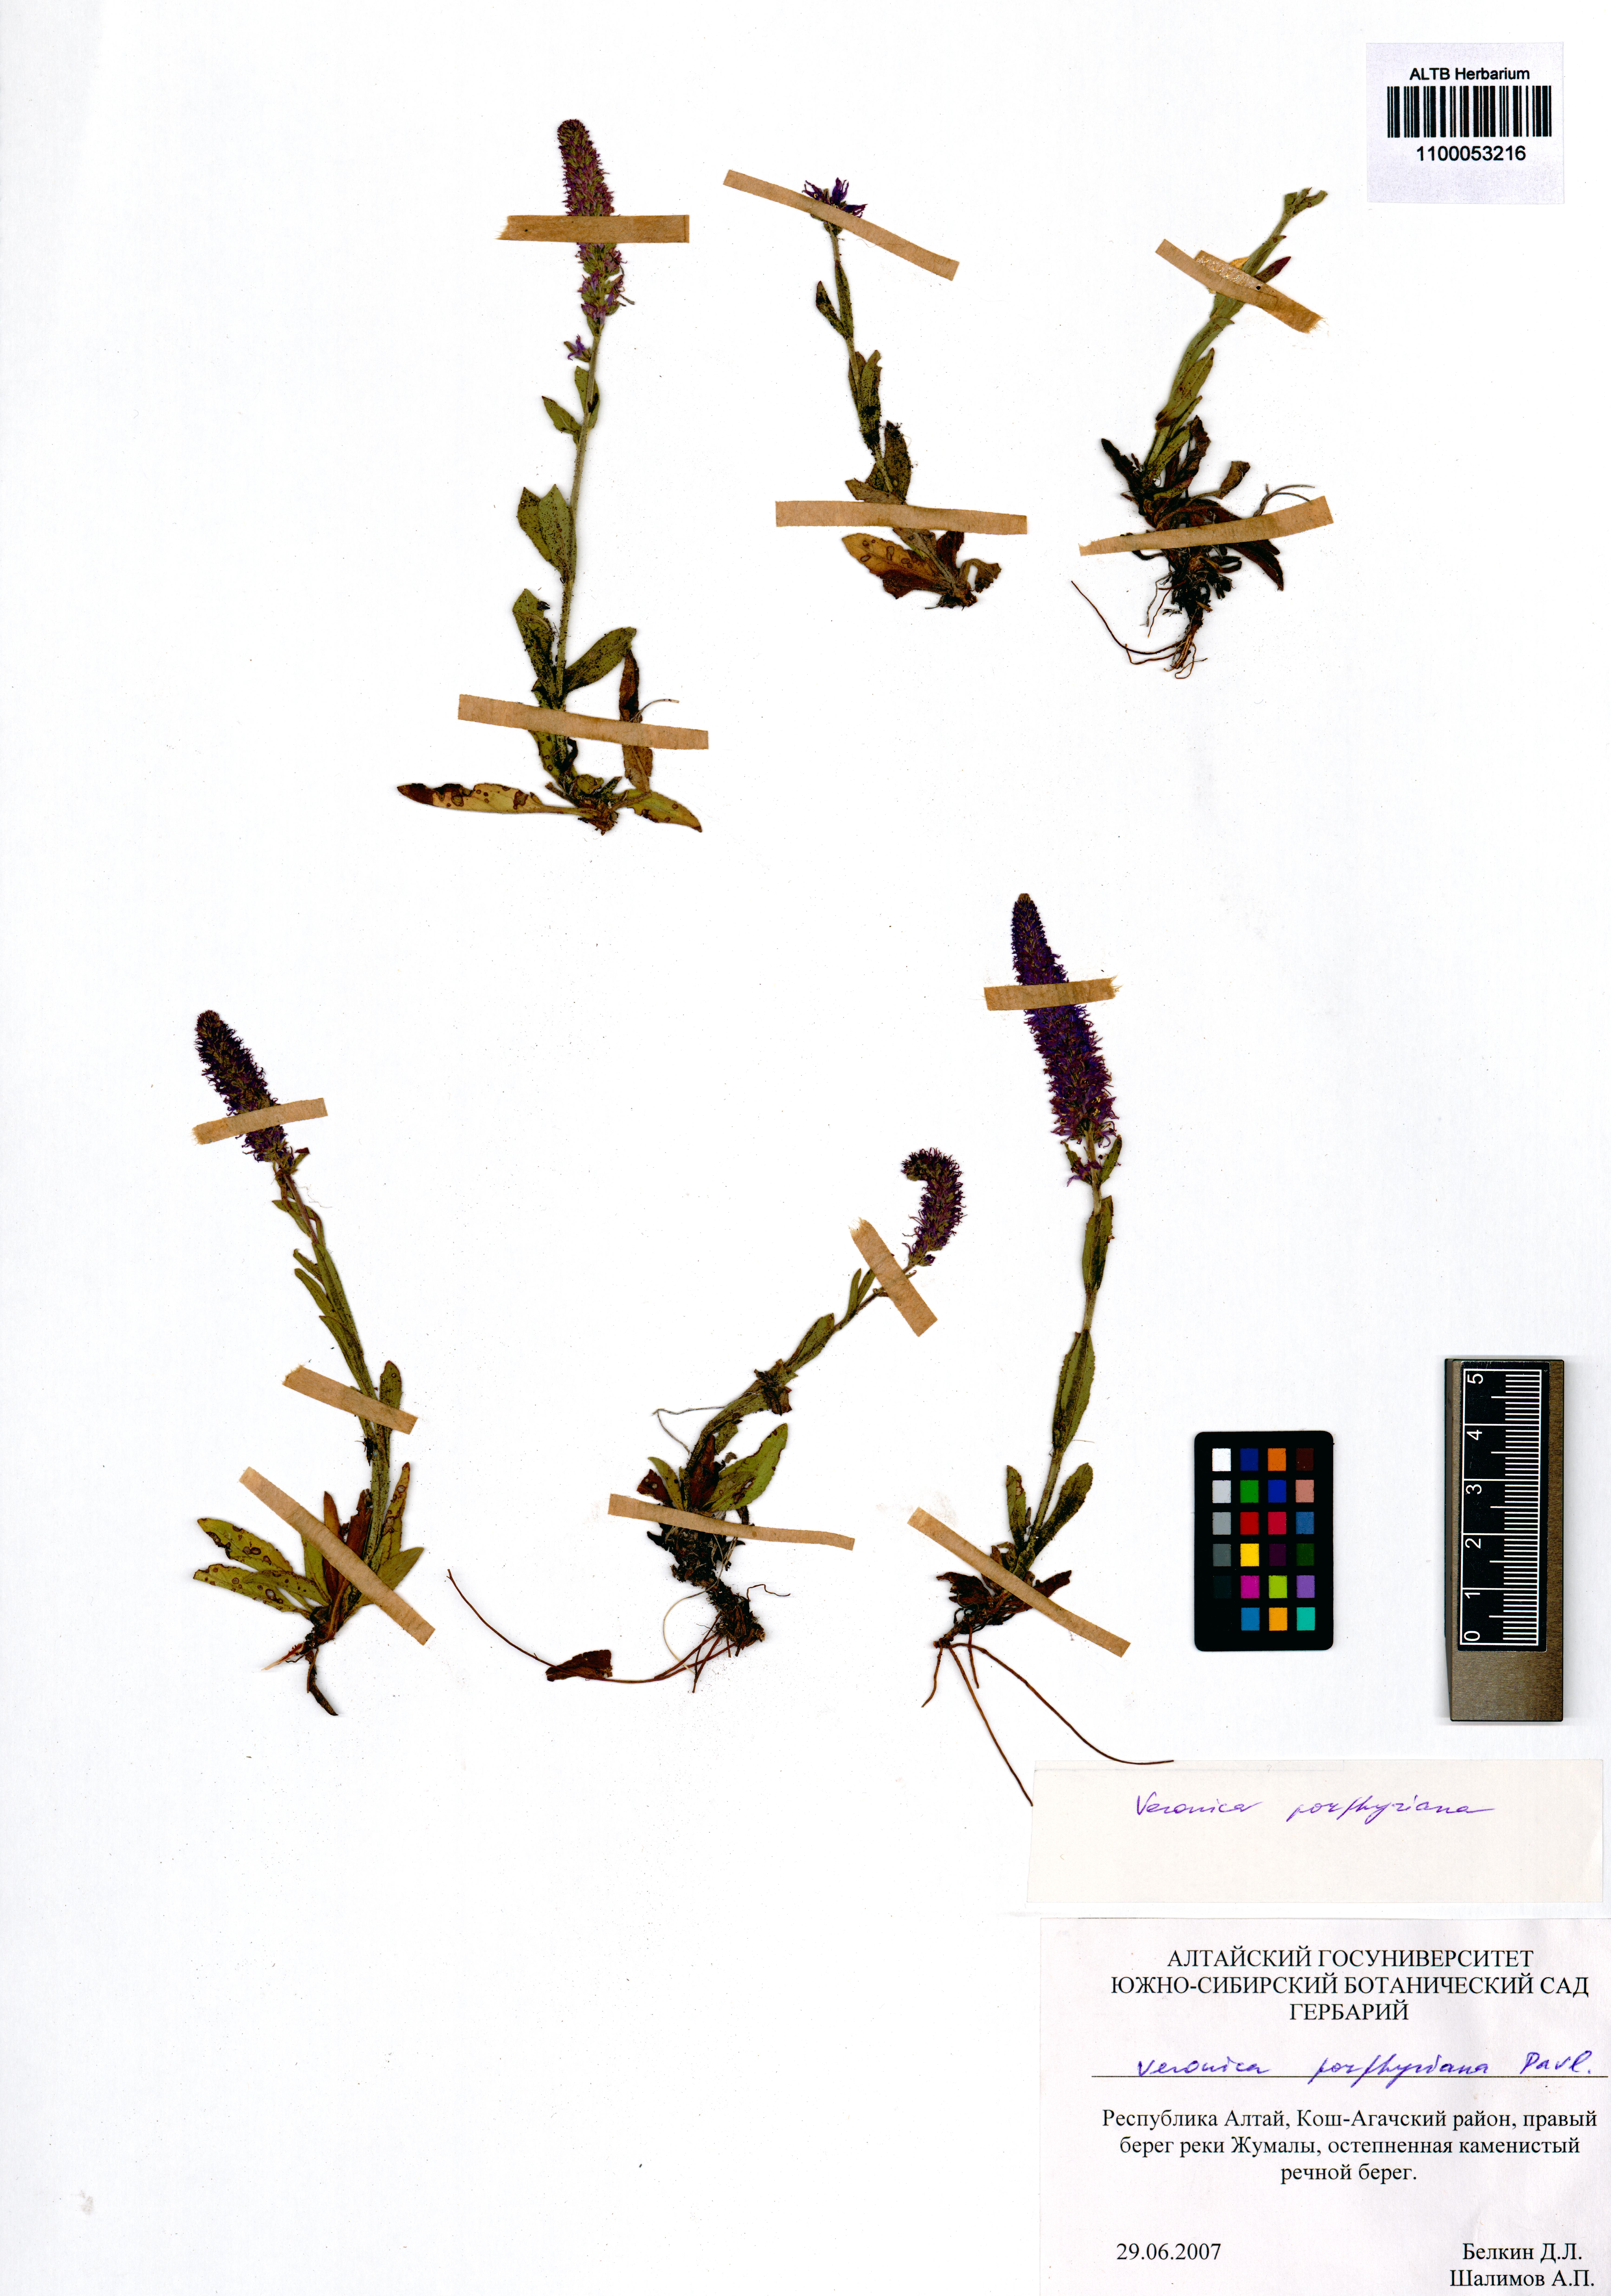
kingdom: Plantae
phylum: Tracheophyta
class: Magnoliopsida
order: Lamiales
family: Plantaginaceae
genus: Veronica
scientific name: Veronica porphyriana
